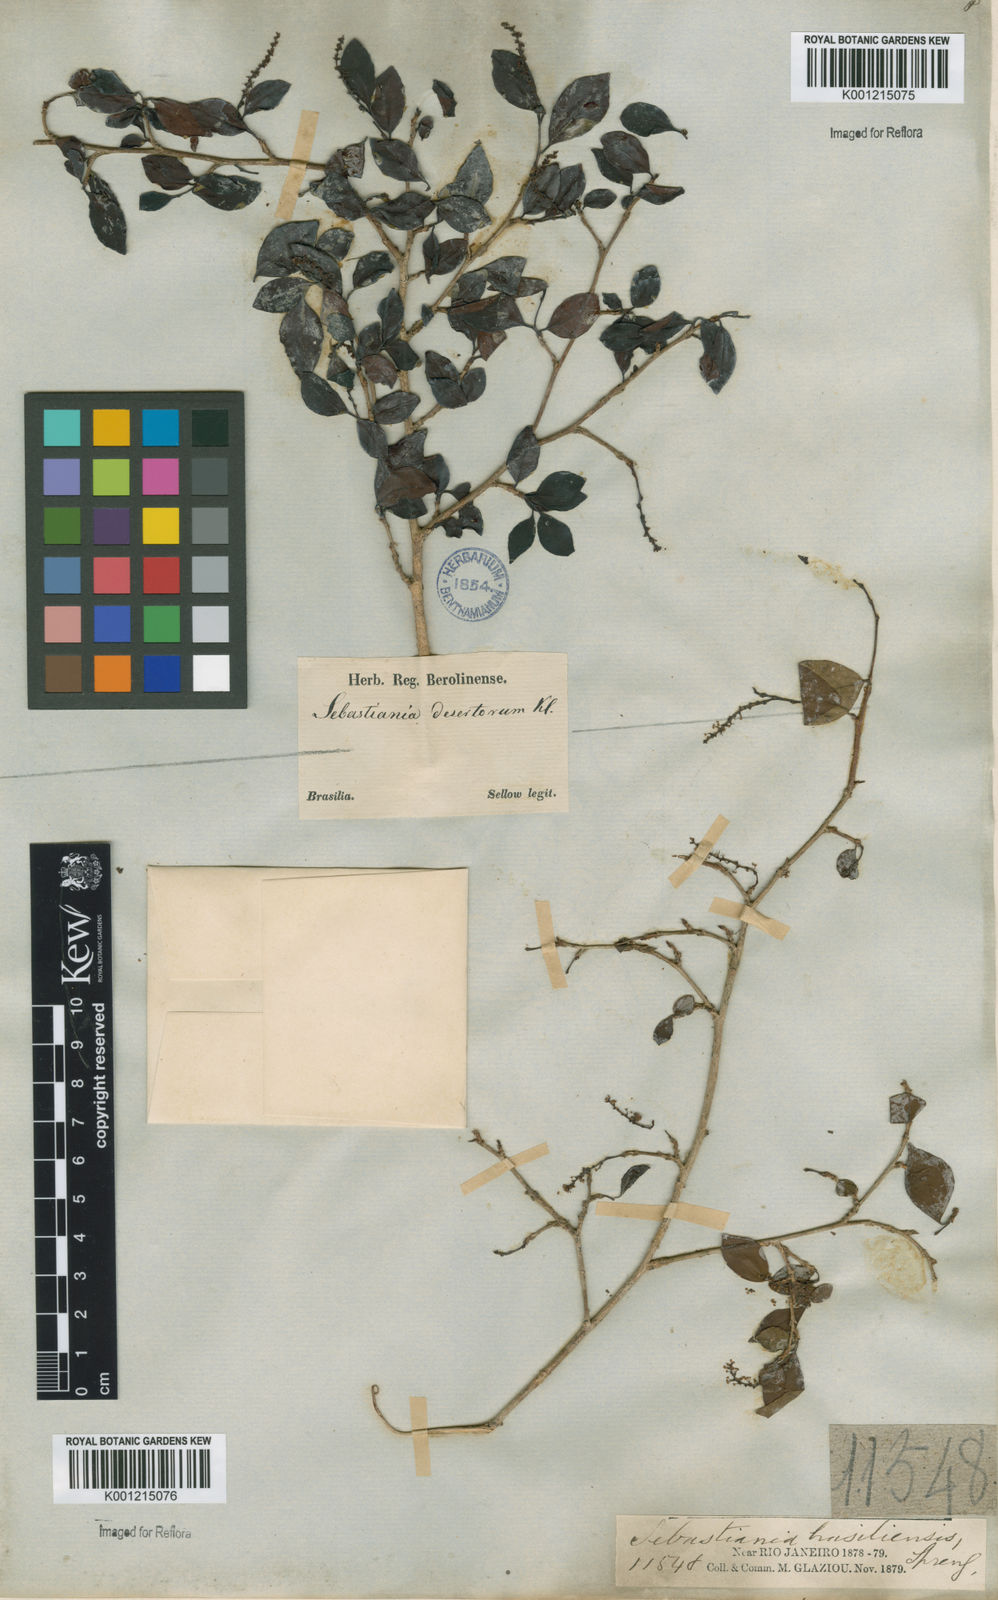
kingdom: Plantae
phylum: Tracheophyta
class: Magnoliopsida
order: Malpighiales
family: Euphorbiaceae
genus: Sebastiania
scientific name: Sebastiania
